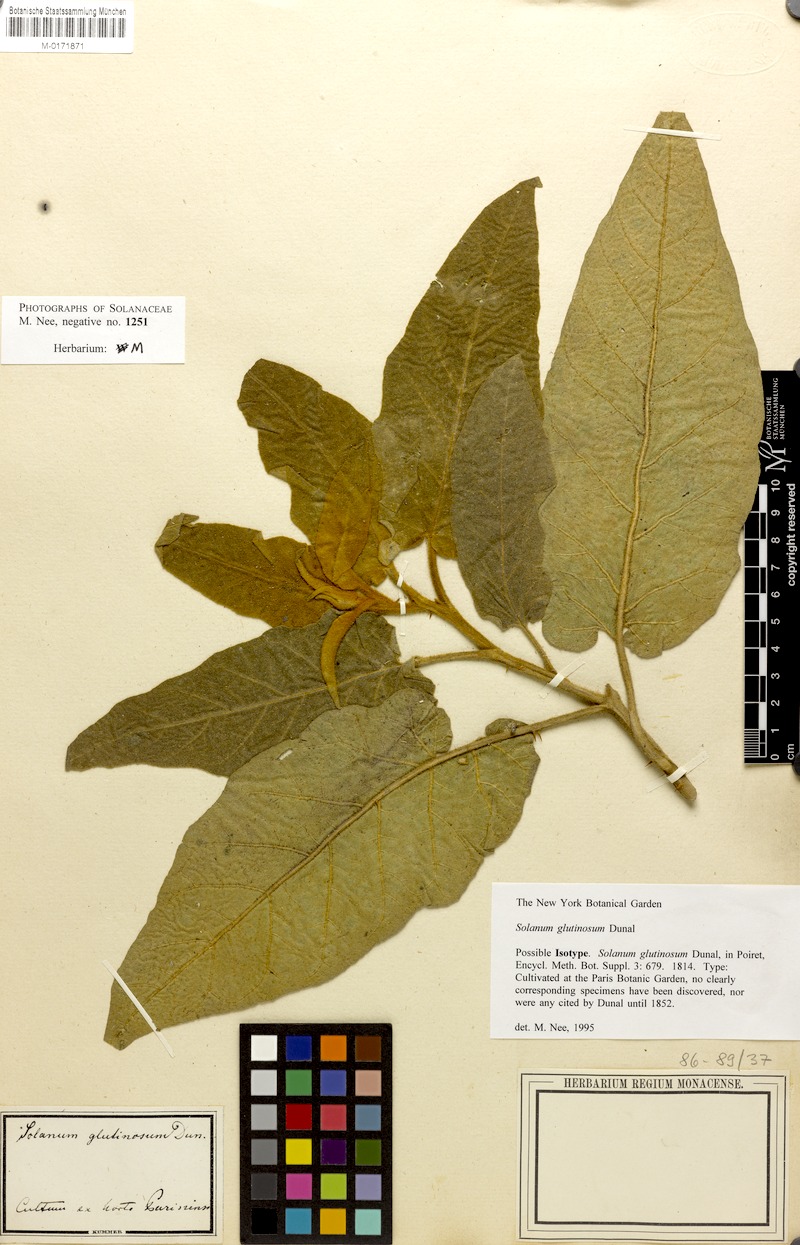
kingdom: Plantae
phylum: Tracheophyta
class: Magnoliopsida
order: Solanales
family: Solanaceae
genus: Solanum
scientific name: Solanum glutinosum
